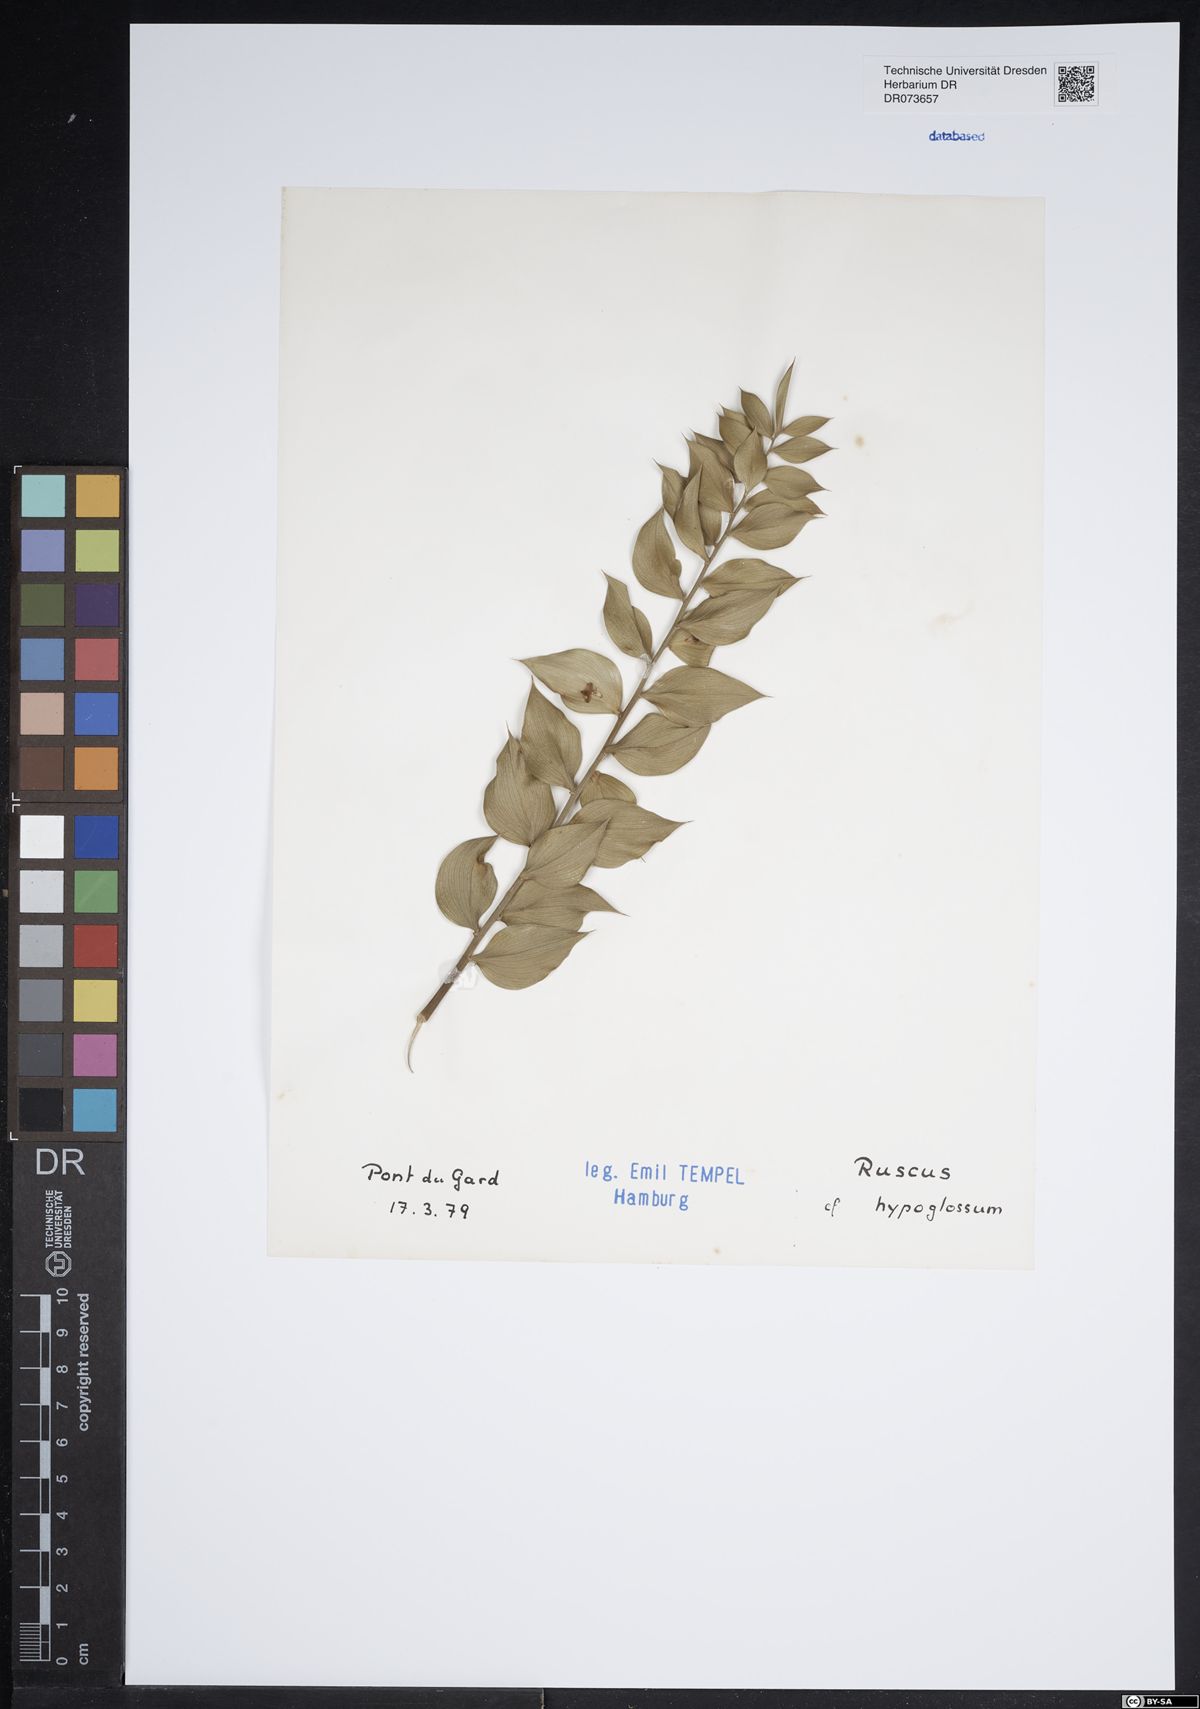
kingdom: Plantae
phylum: Tracheophyta
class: Liliopsida
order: Asparagales
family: Asparagaceae
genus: Ruscus
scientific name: Ruscus hypoglossum
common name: Spineless butcher's-broom
